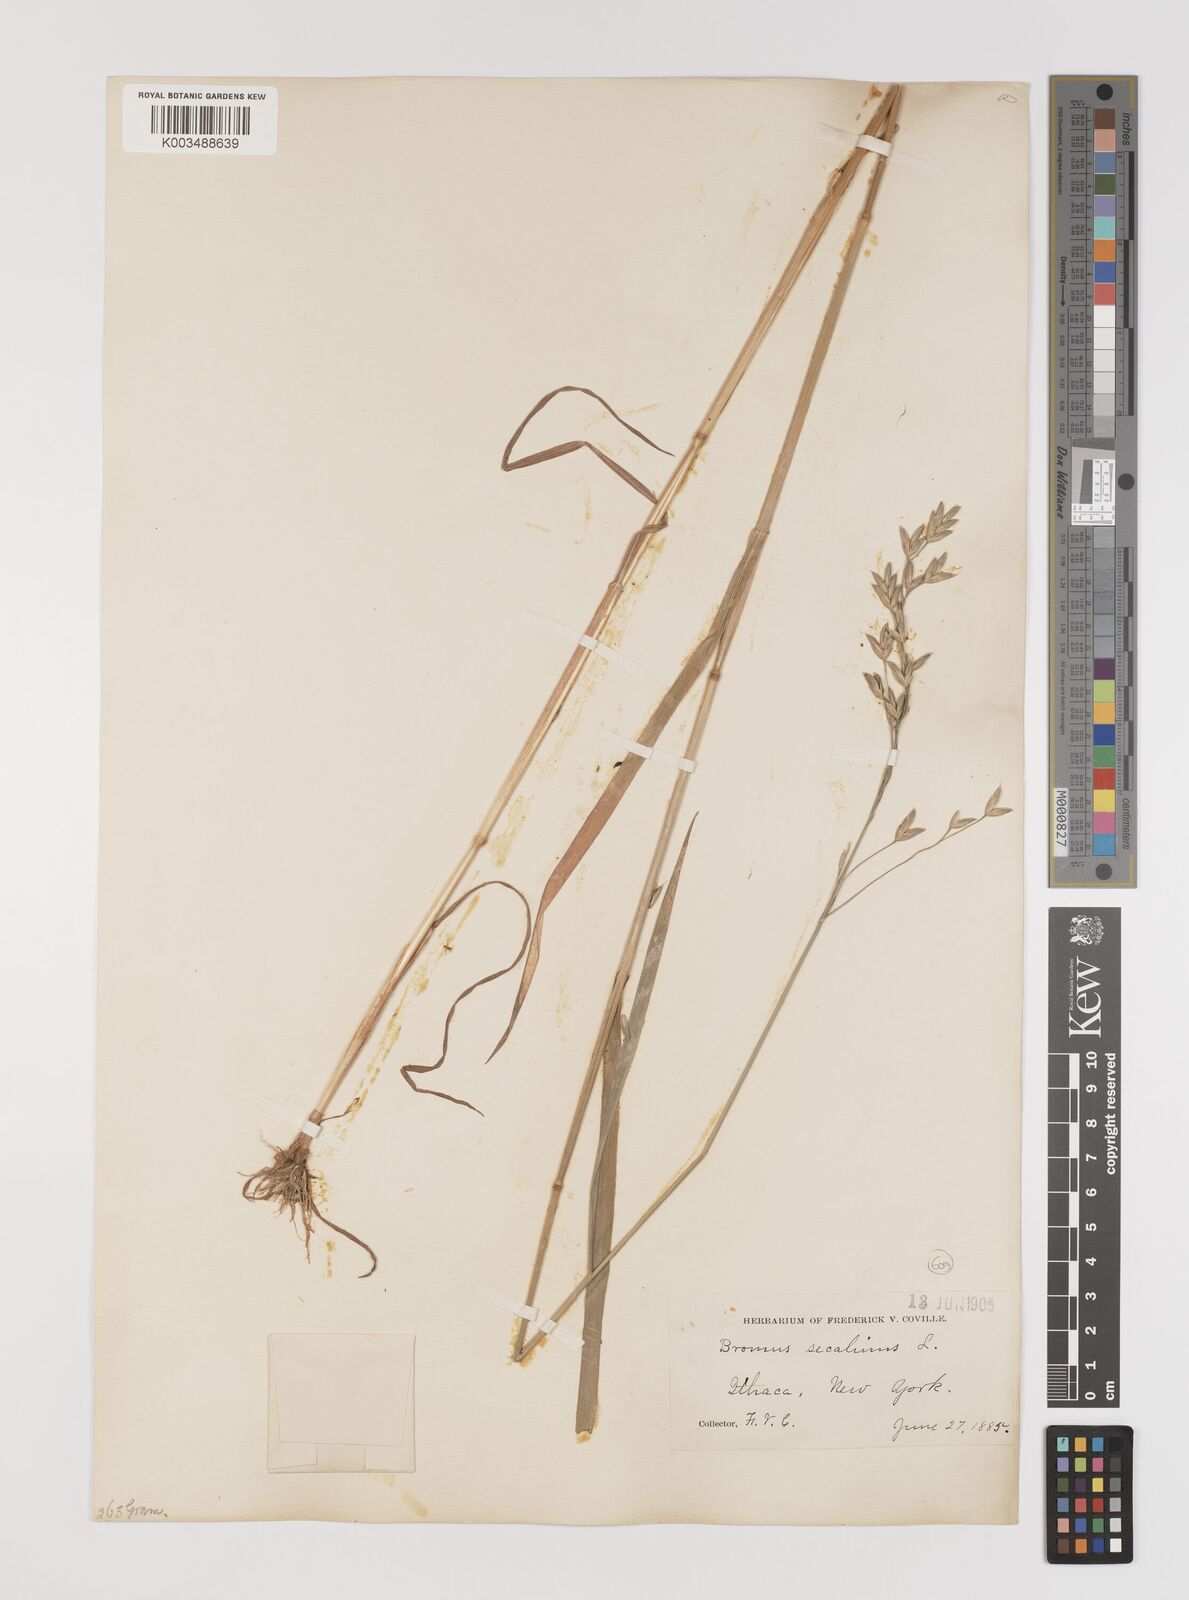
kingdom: Plantae
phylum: Tracheophyta
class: Liliopsida
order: Poales
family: Poaceae
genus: Bromus
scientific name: Bromus secalinus
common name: Rye brome
